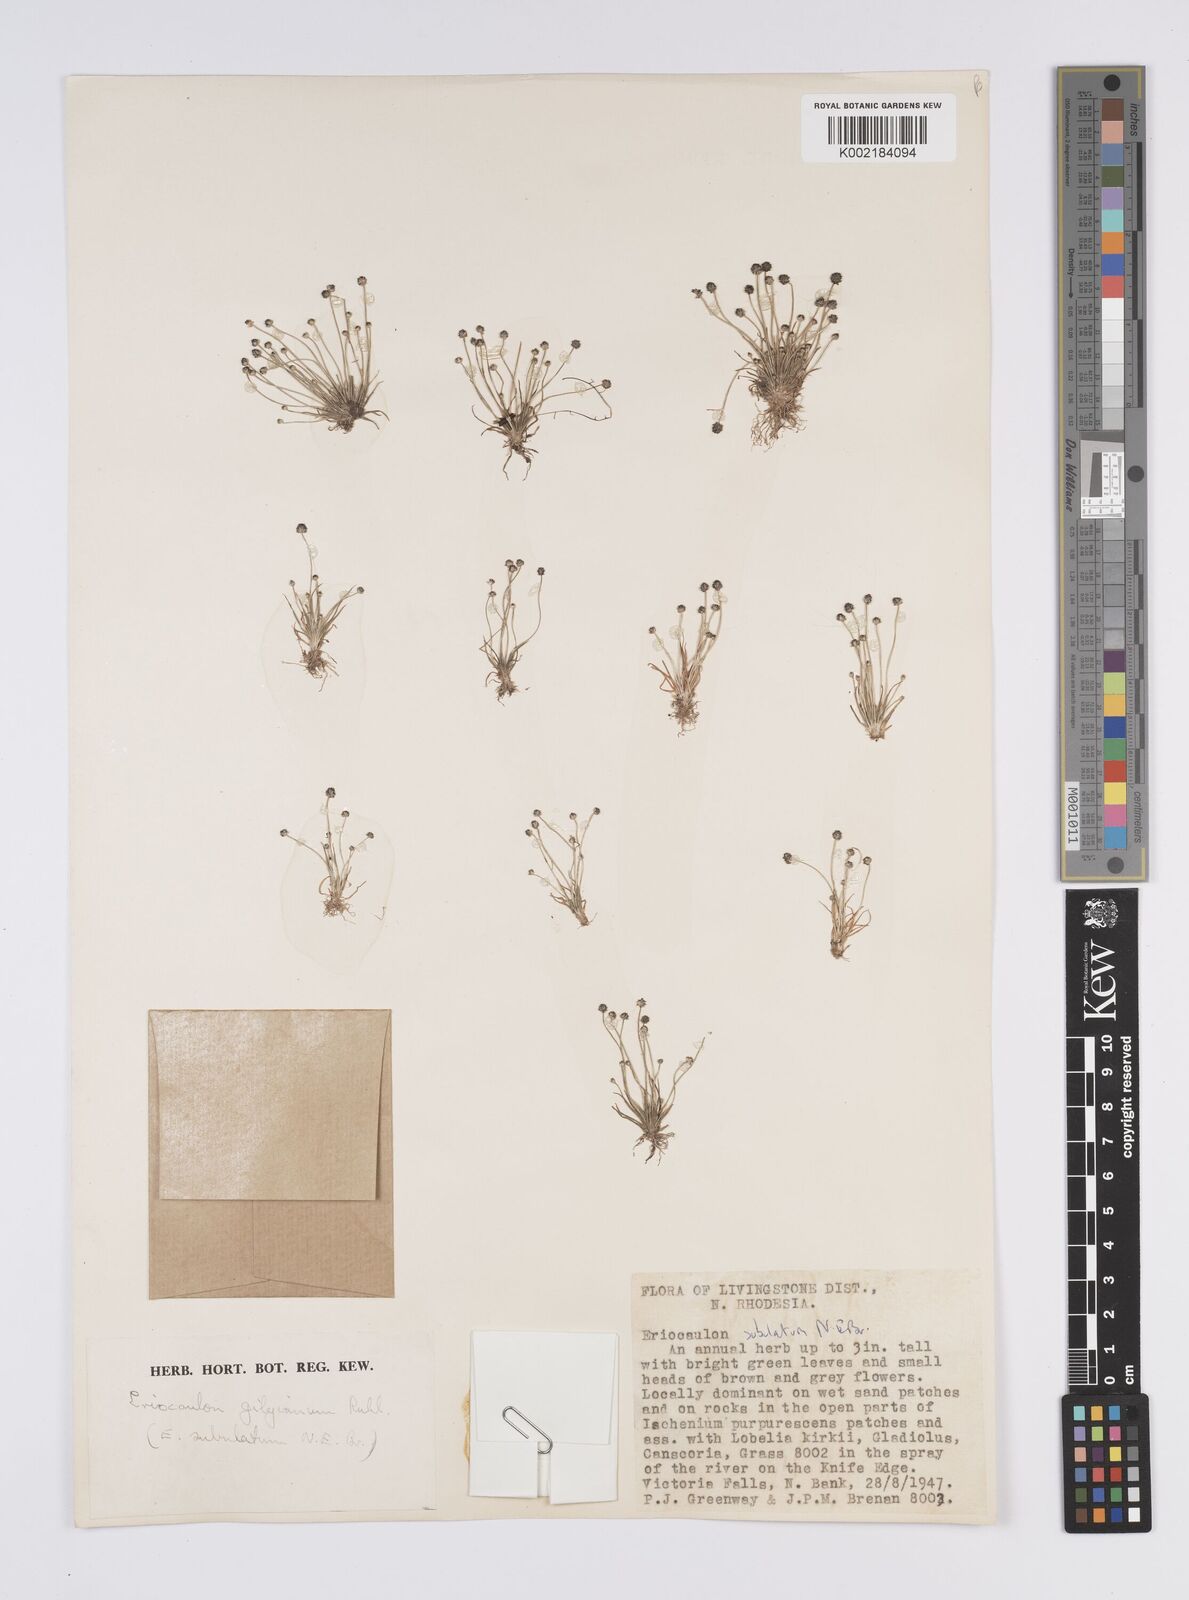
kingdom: Plantae
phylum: Tracheophyta
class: Liliopsida
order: Poales
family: Eriocaulaceae
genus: Eriocaulon
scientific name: Eriocaulon abyssinicum
